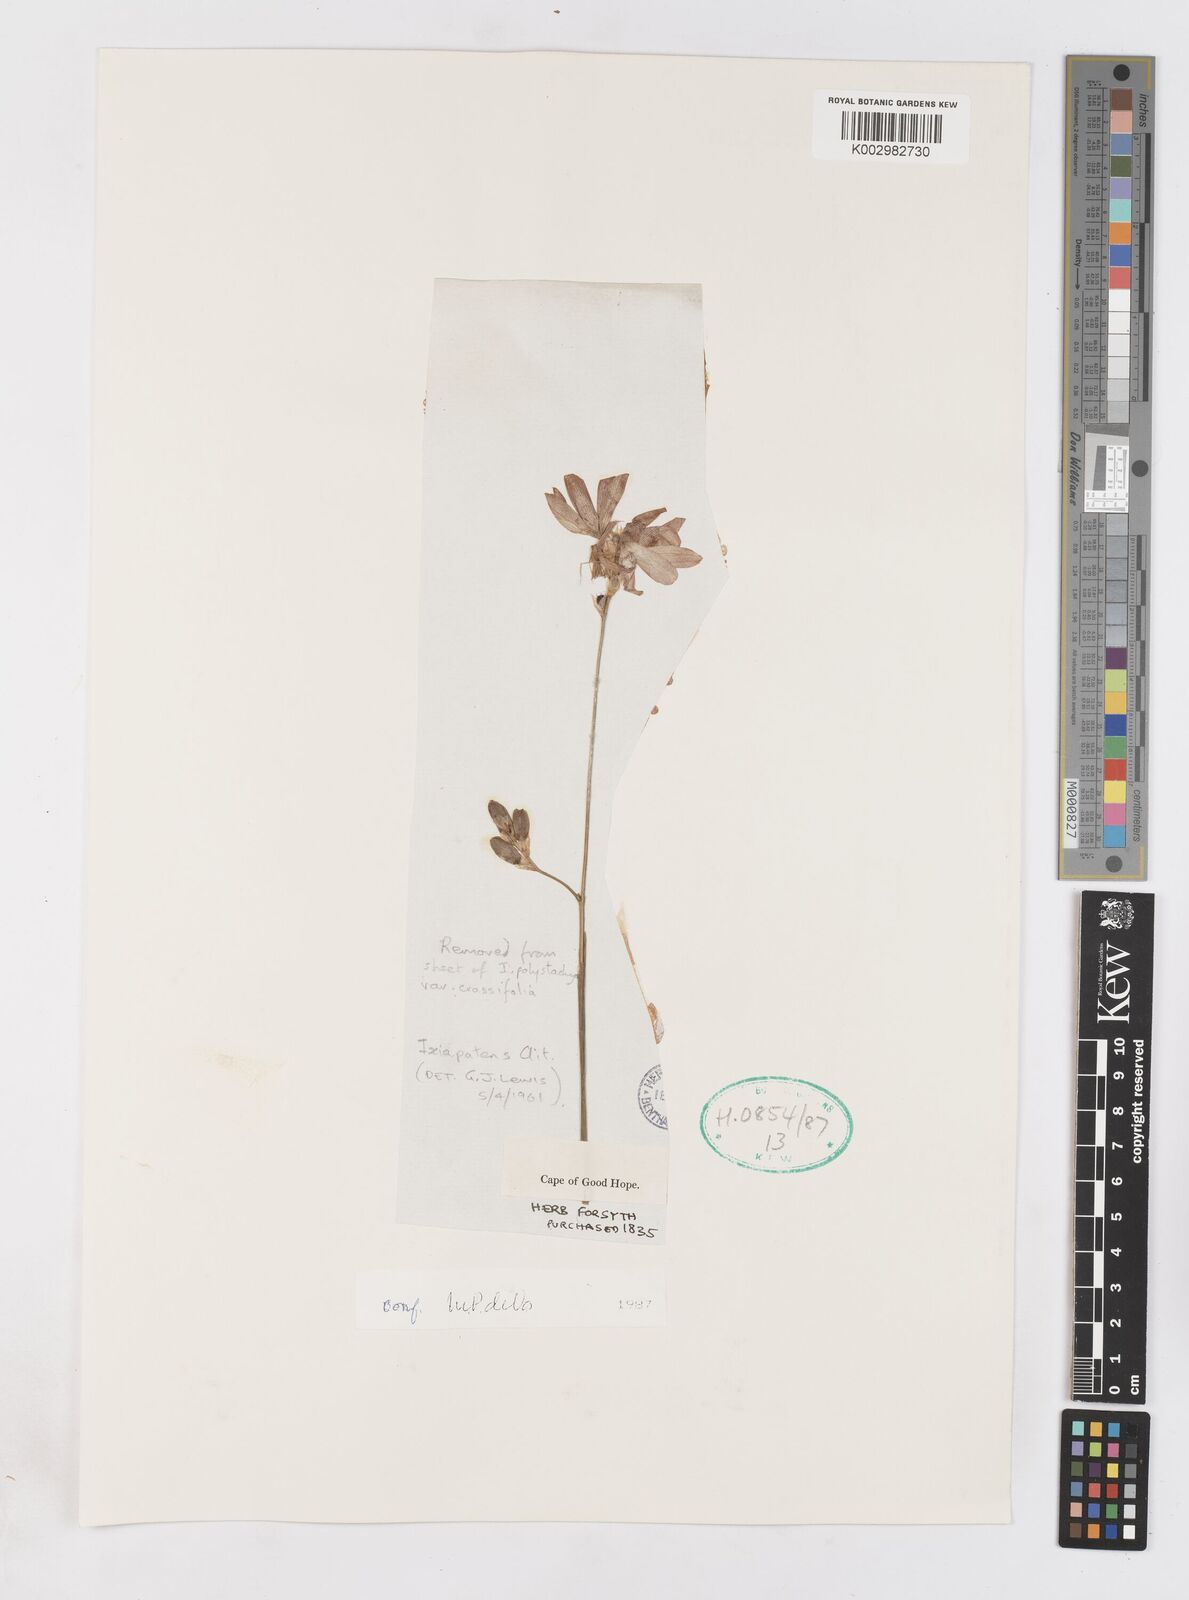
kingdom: Plantae
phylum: Tracheophyta
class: Liliopsida
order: Asparagales
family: Iridaceae
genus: Ixia
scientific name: Ixia patens
